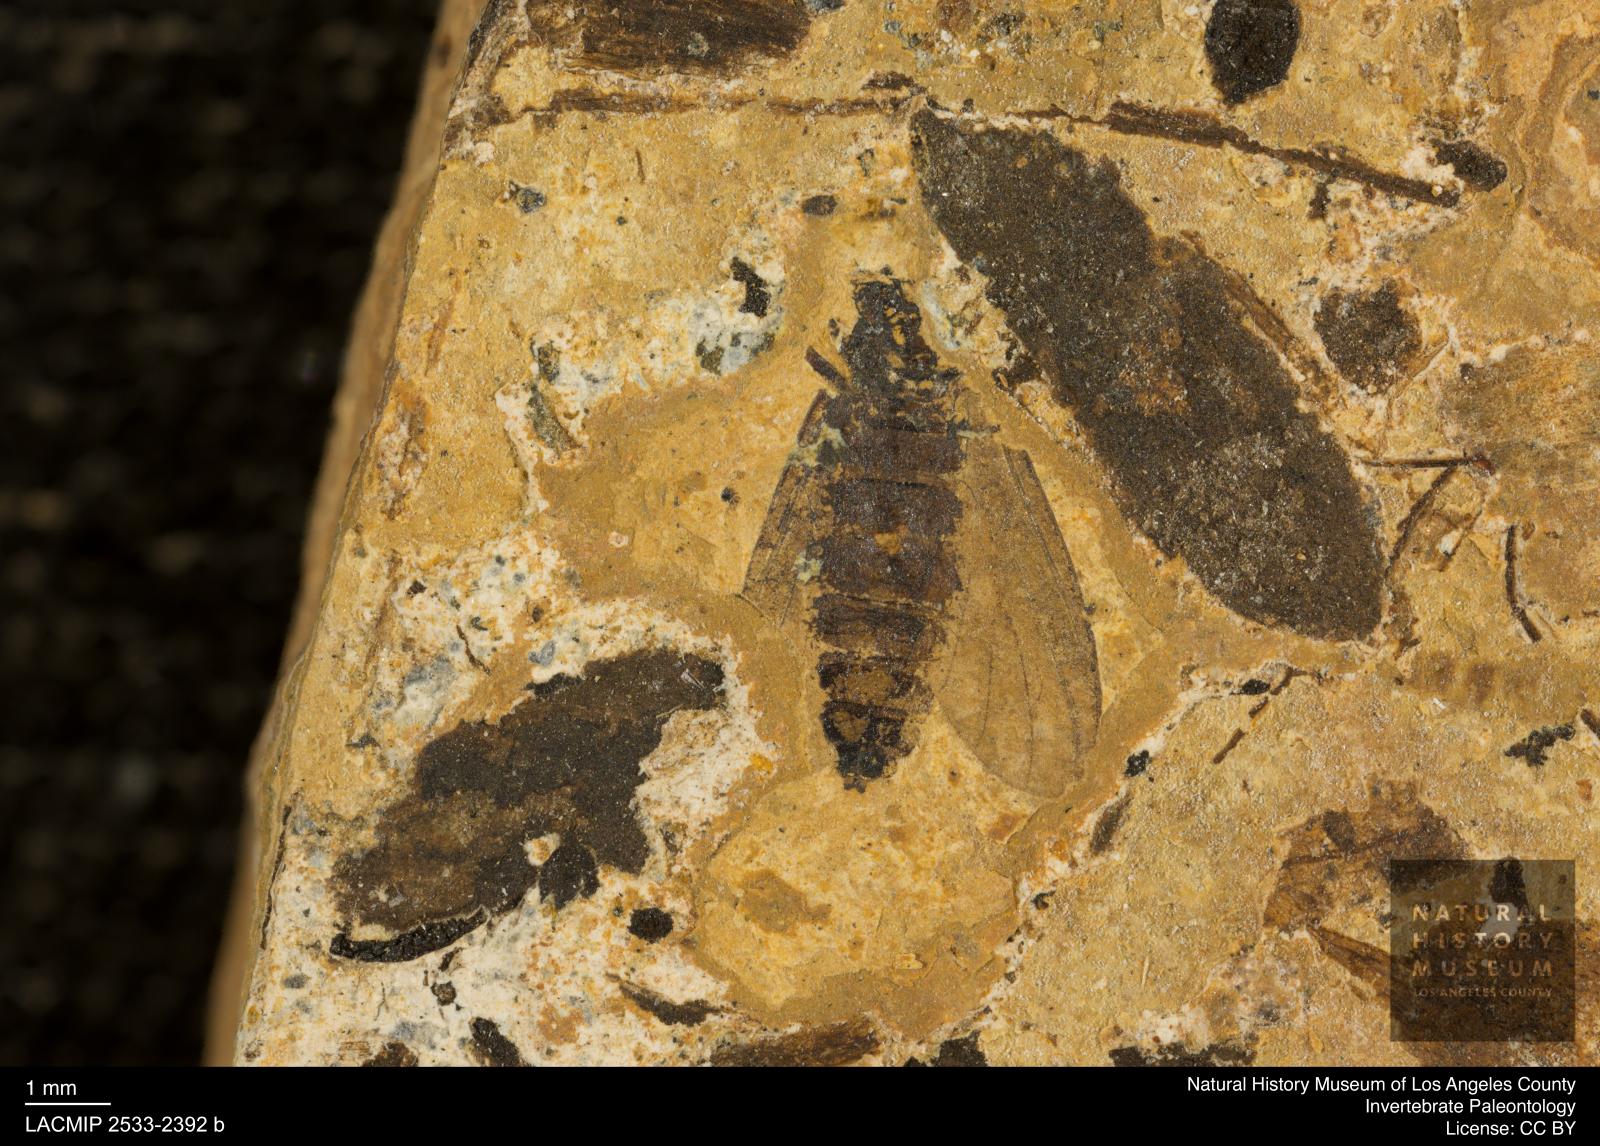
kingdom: Animalia
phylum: Arthropoda
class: Insecta
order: Diptera
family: Bibionidae
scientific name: Bibionidae
